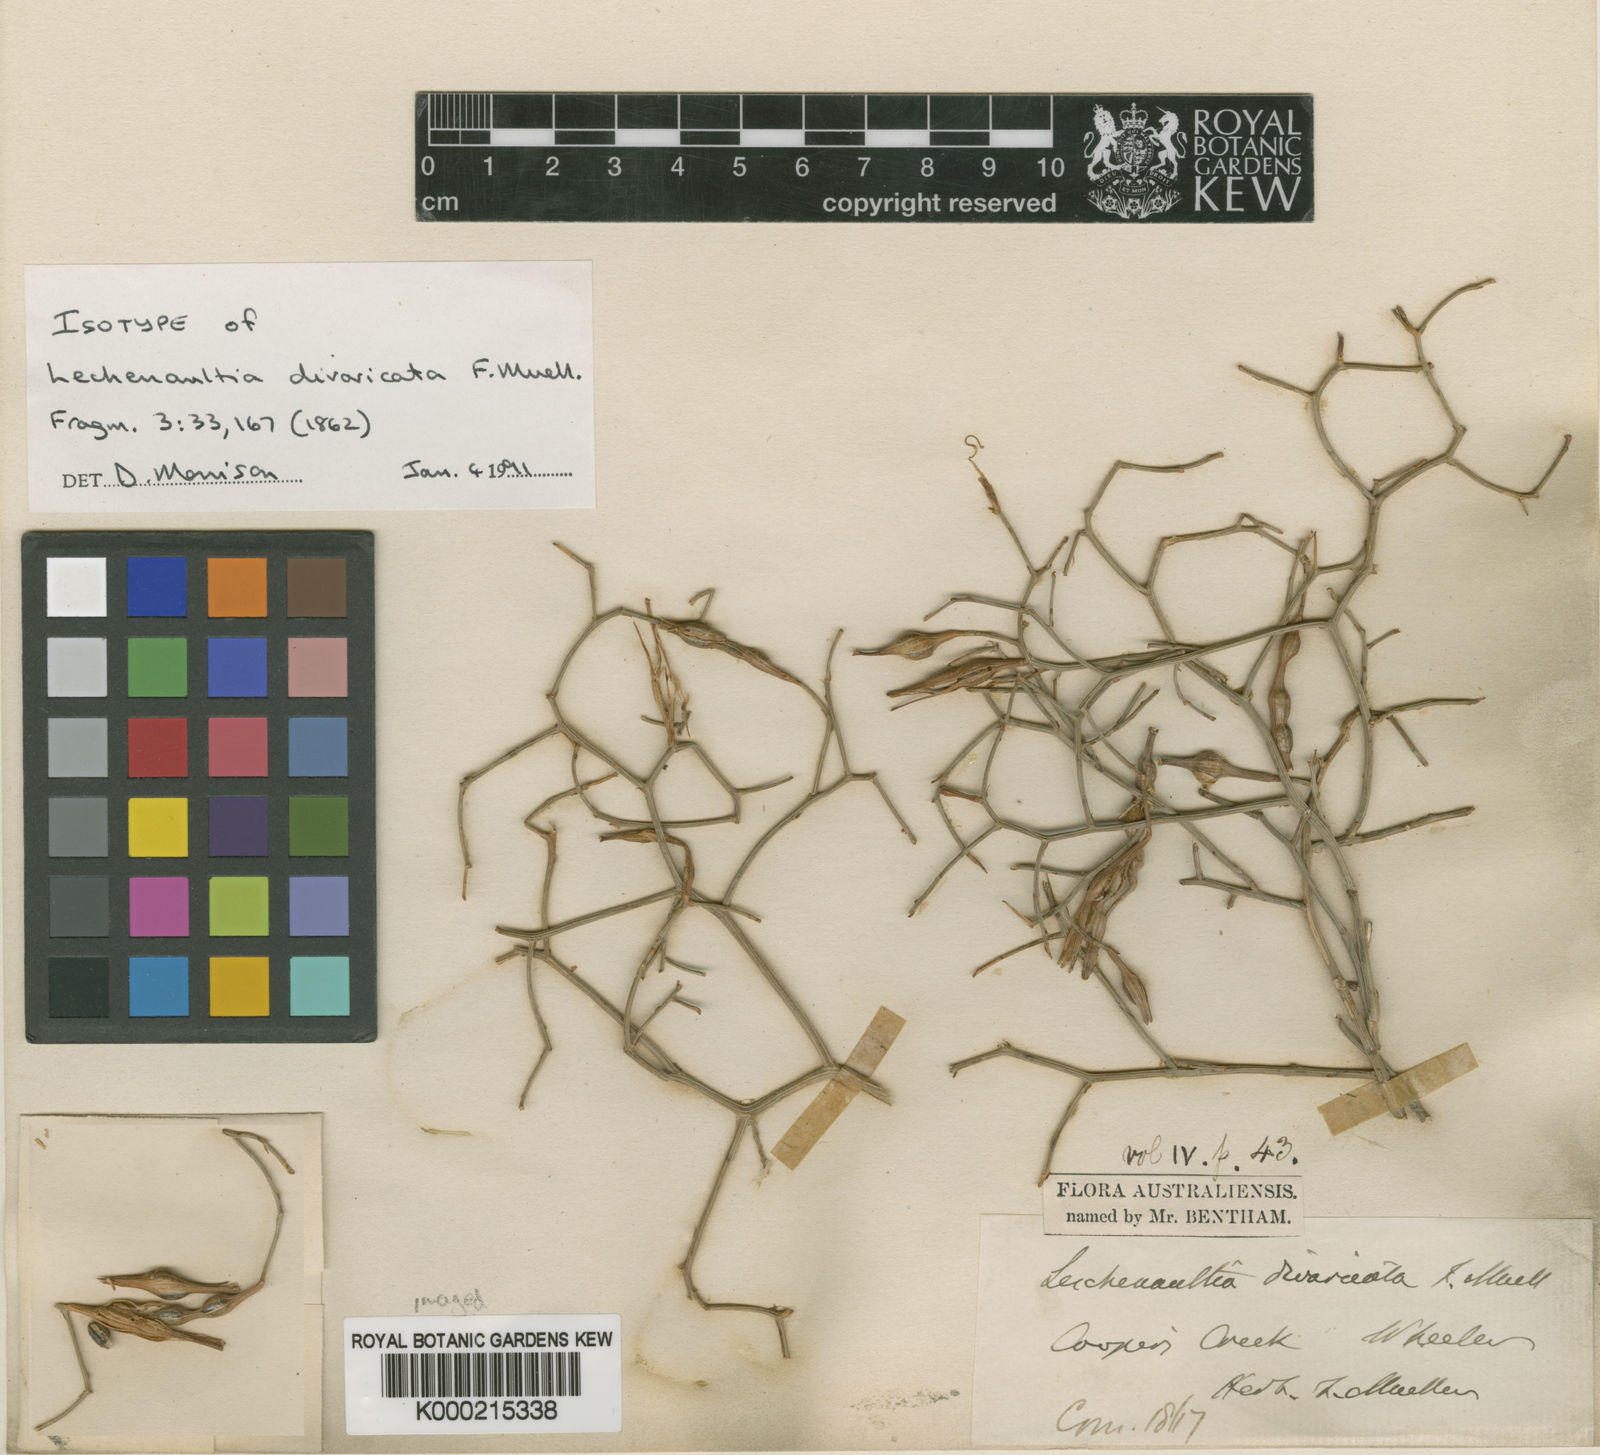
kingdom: Plantae
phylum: Tracheophyta
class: Magnoliopsida
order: Asterales
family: Goodeniaceae
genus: Leschenaultia
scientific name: Leschenaultia divaricata
